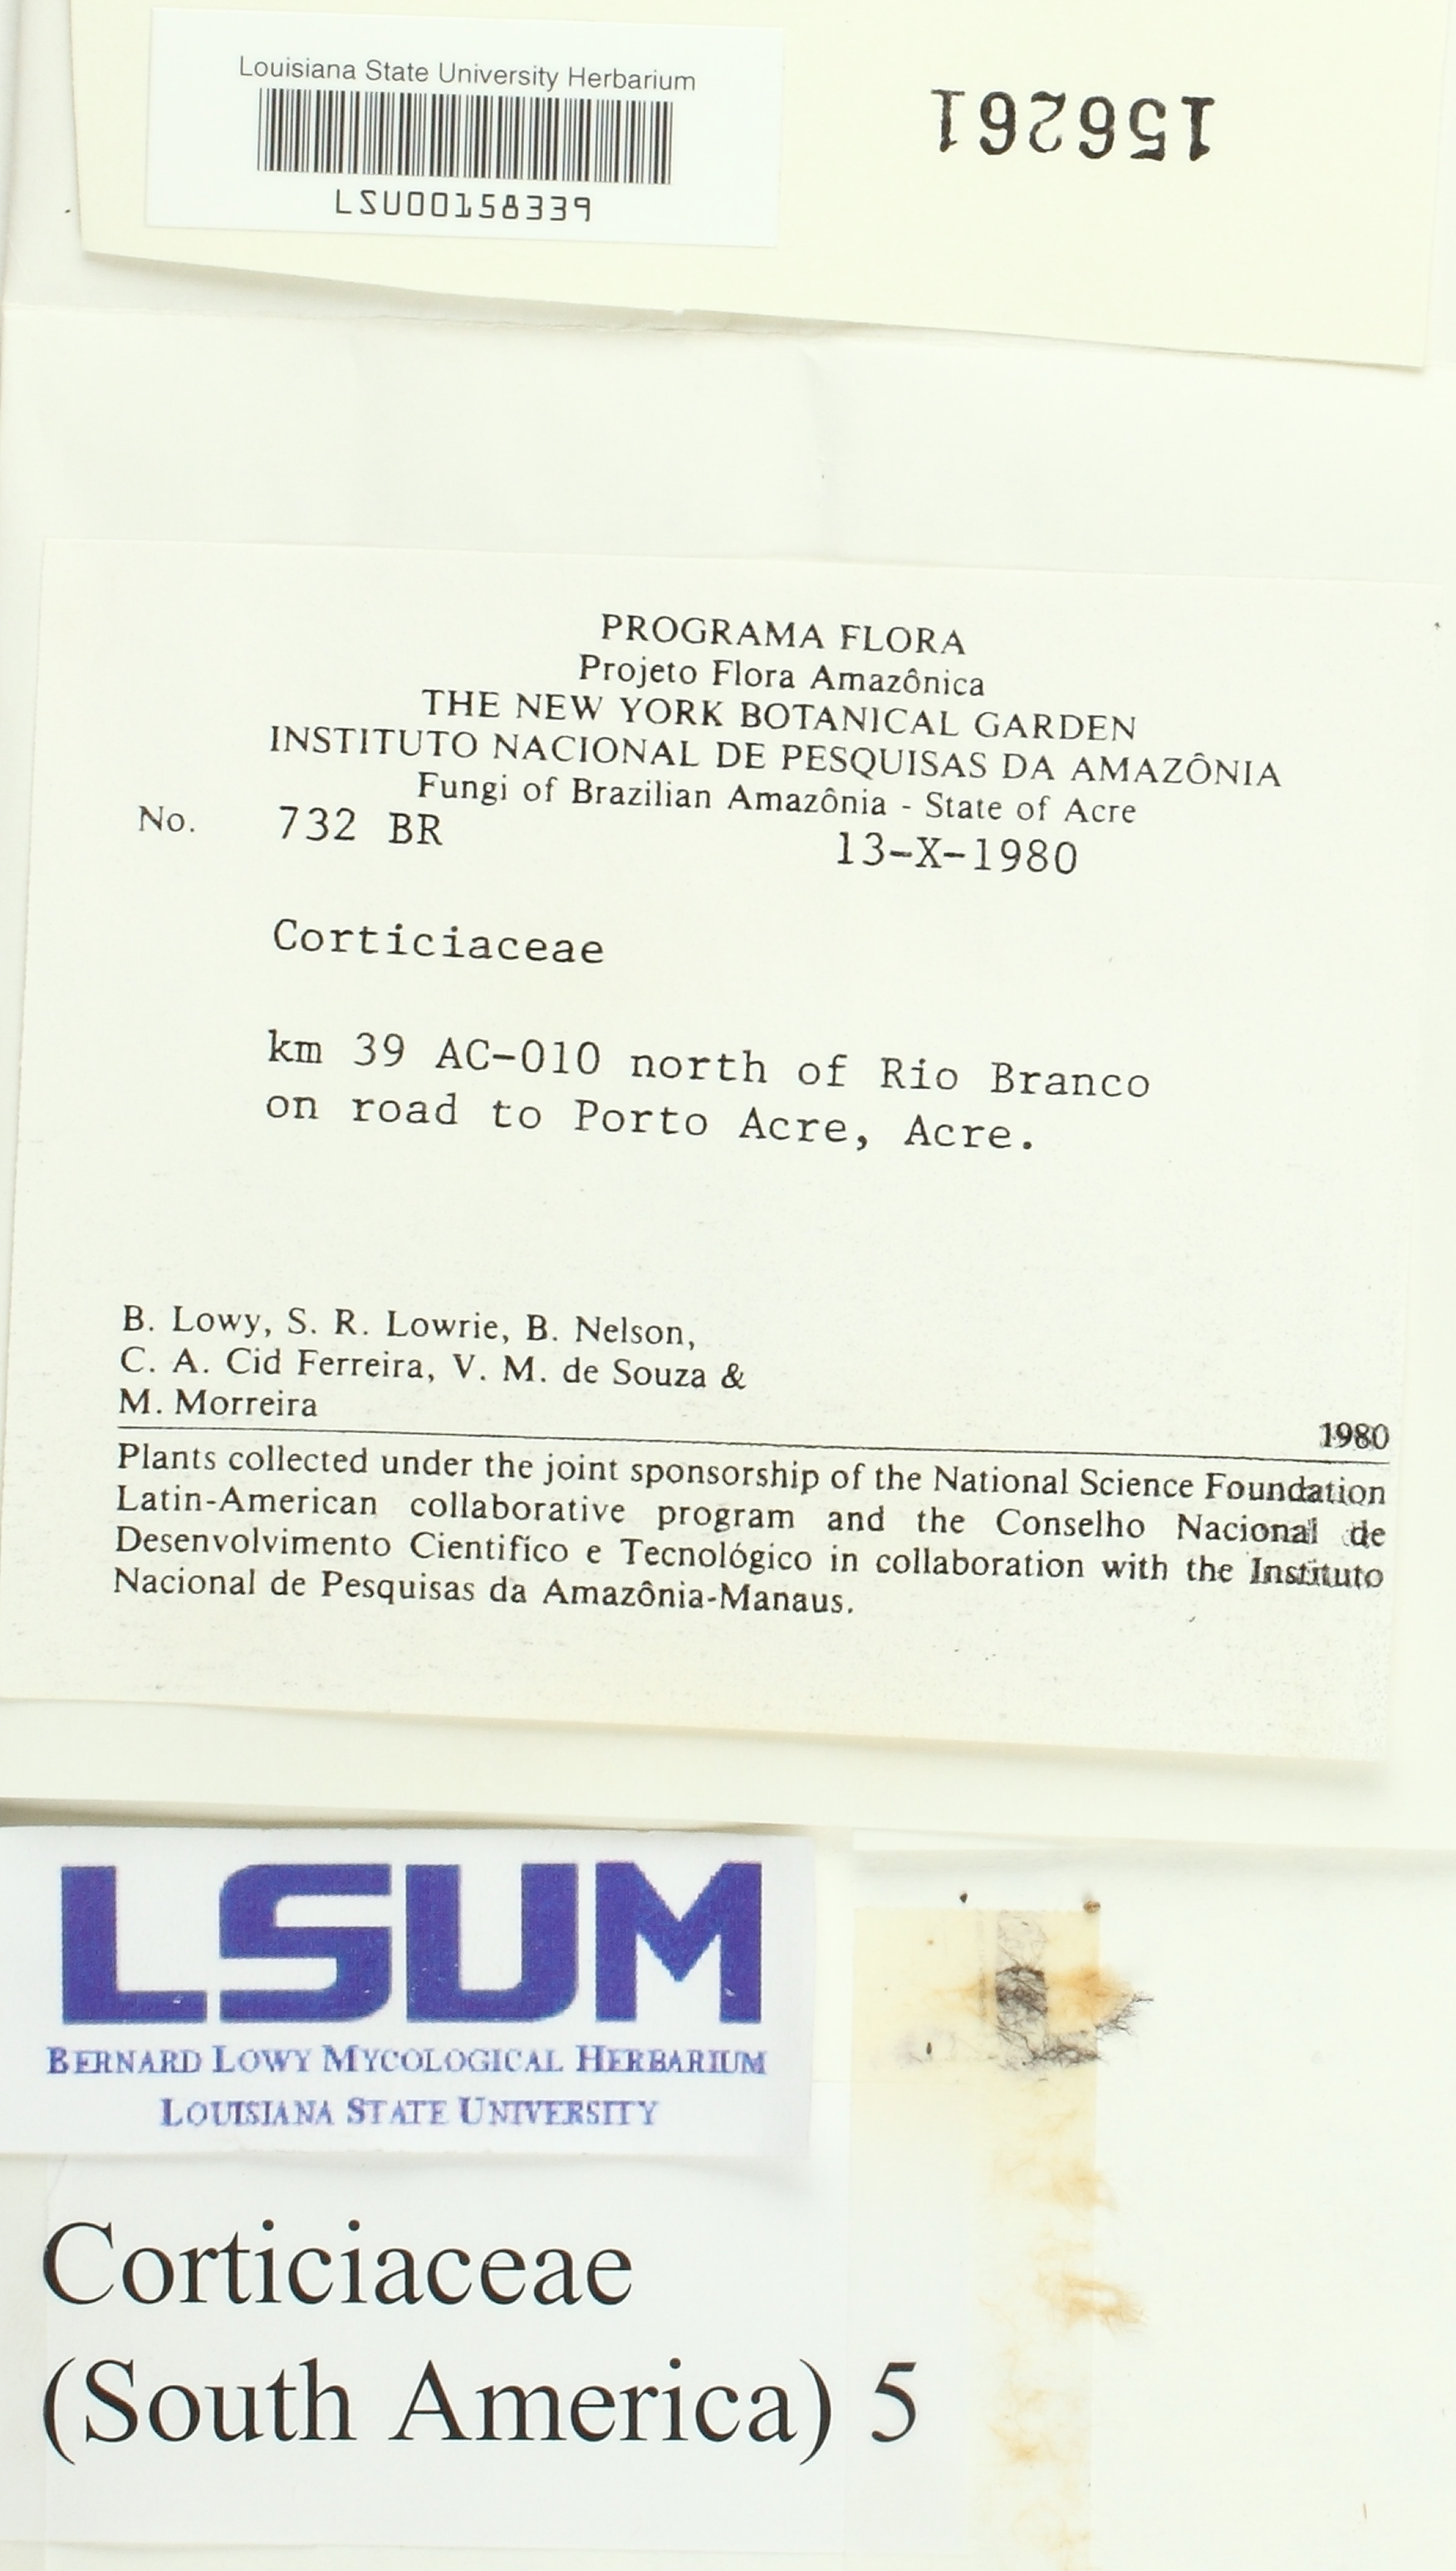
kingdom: Fungi
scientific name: Fungi
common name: Fungi
